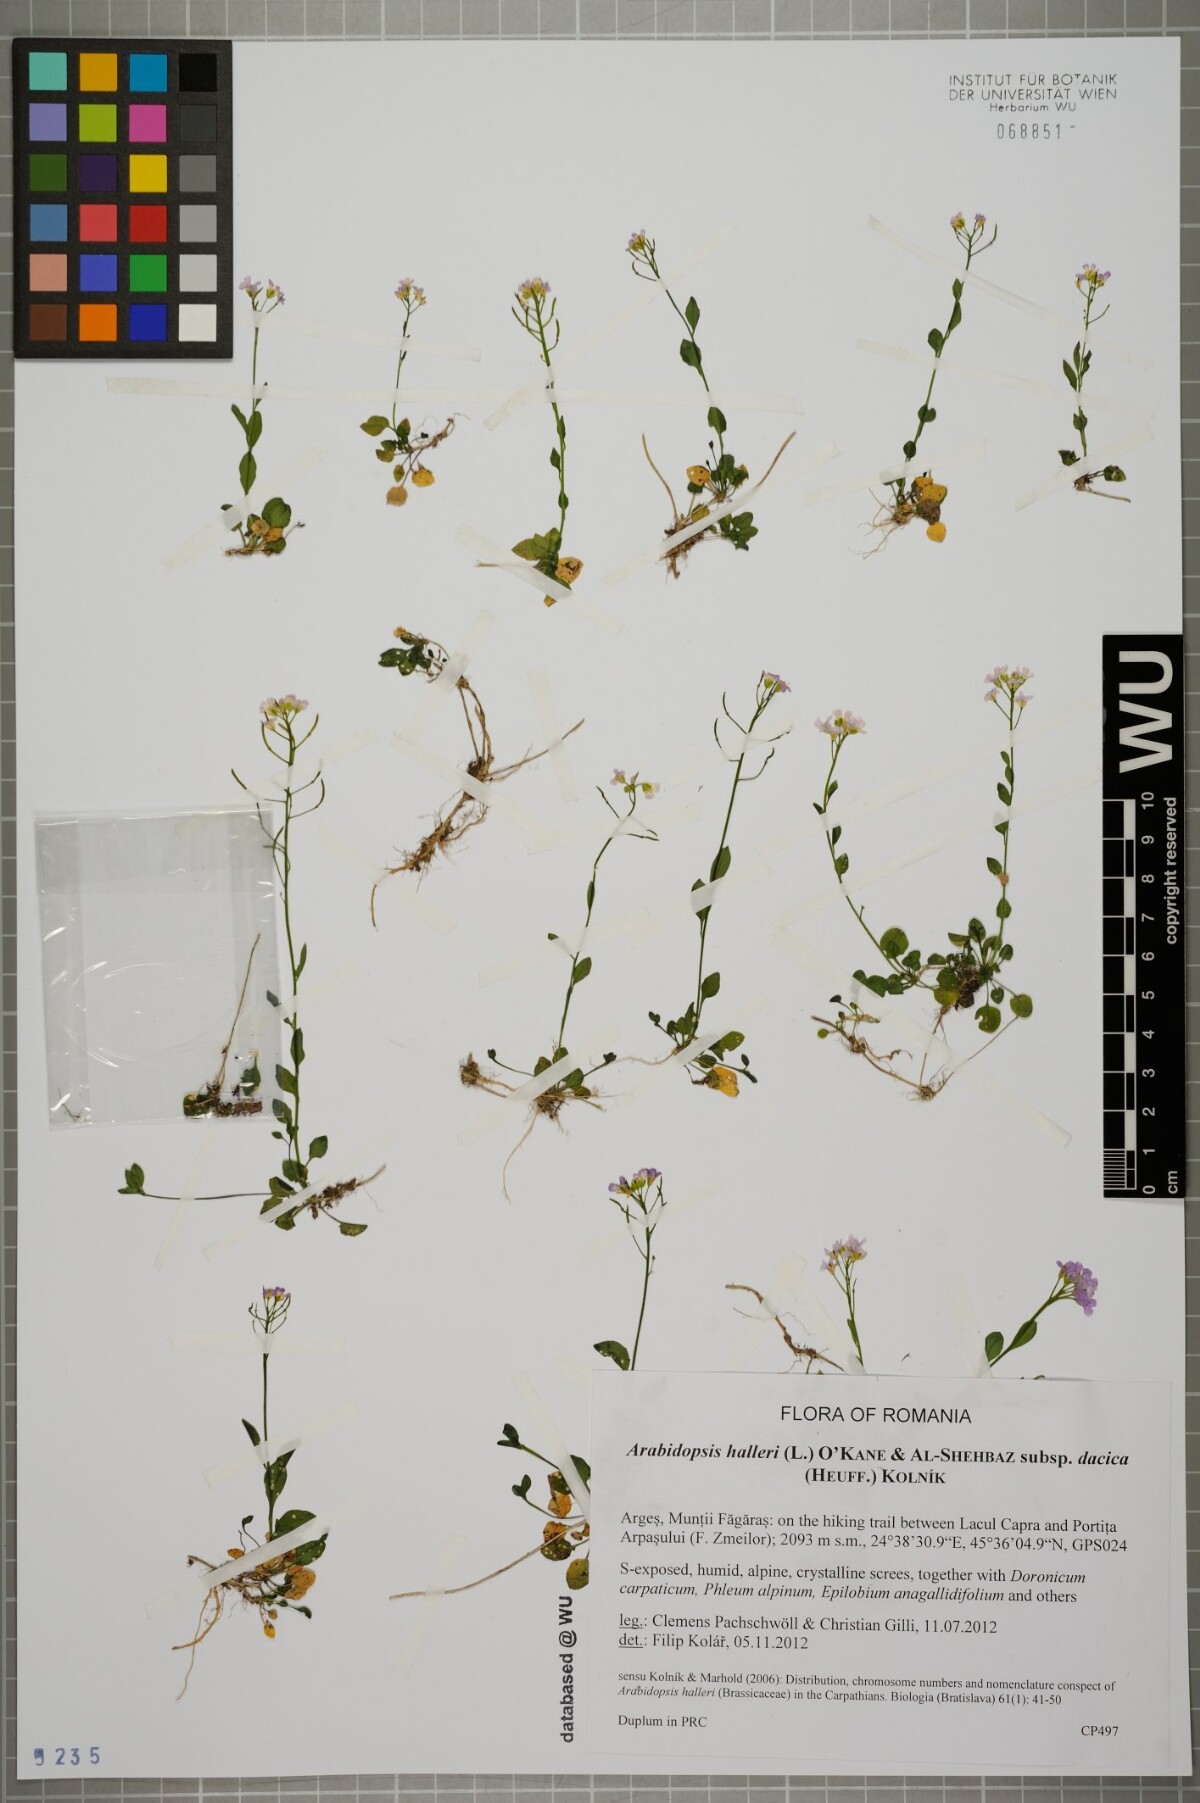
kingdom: Plantae
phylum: Tracheophyta
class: Magnoliopsida
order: Brassicales
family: Brassicaceae
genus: Arabidopsis
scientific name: Arabidopsis halleri
